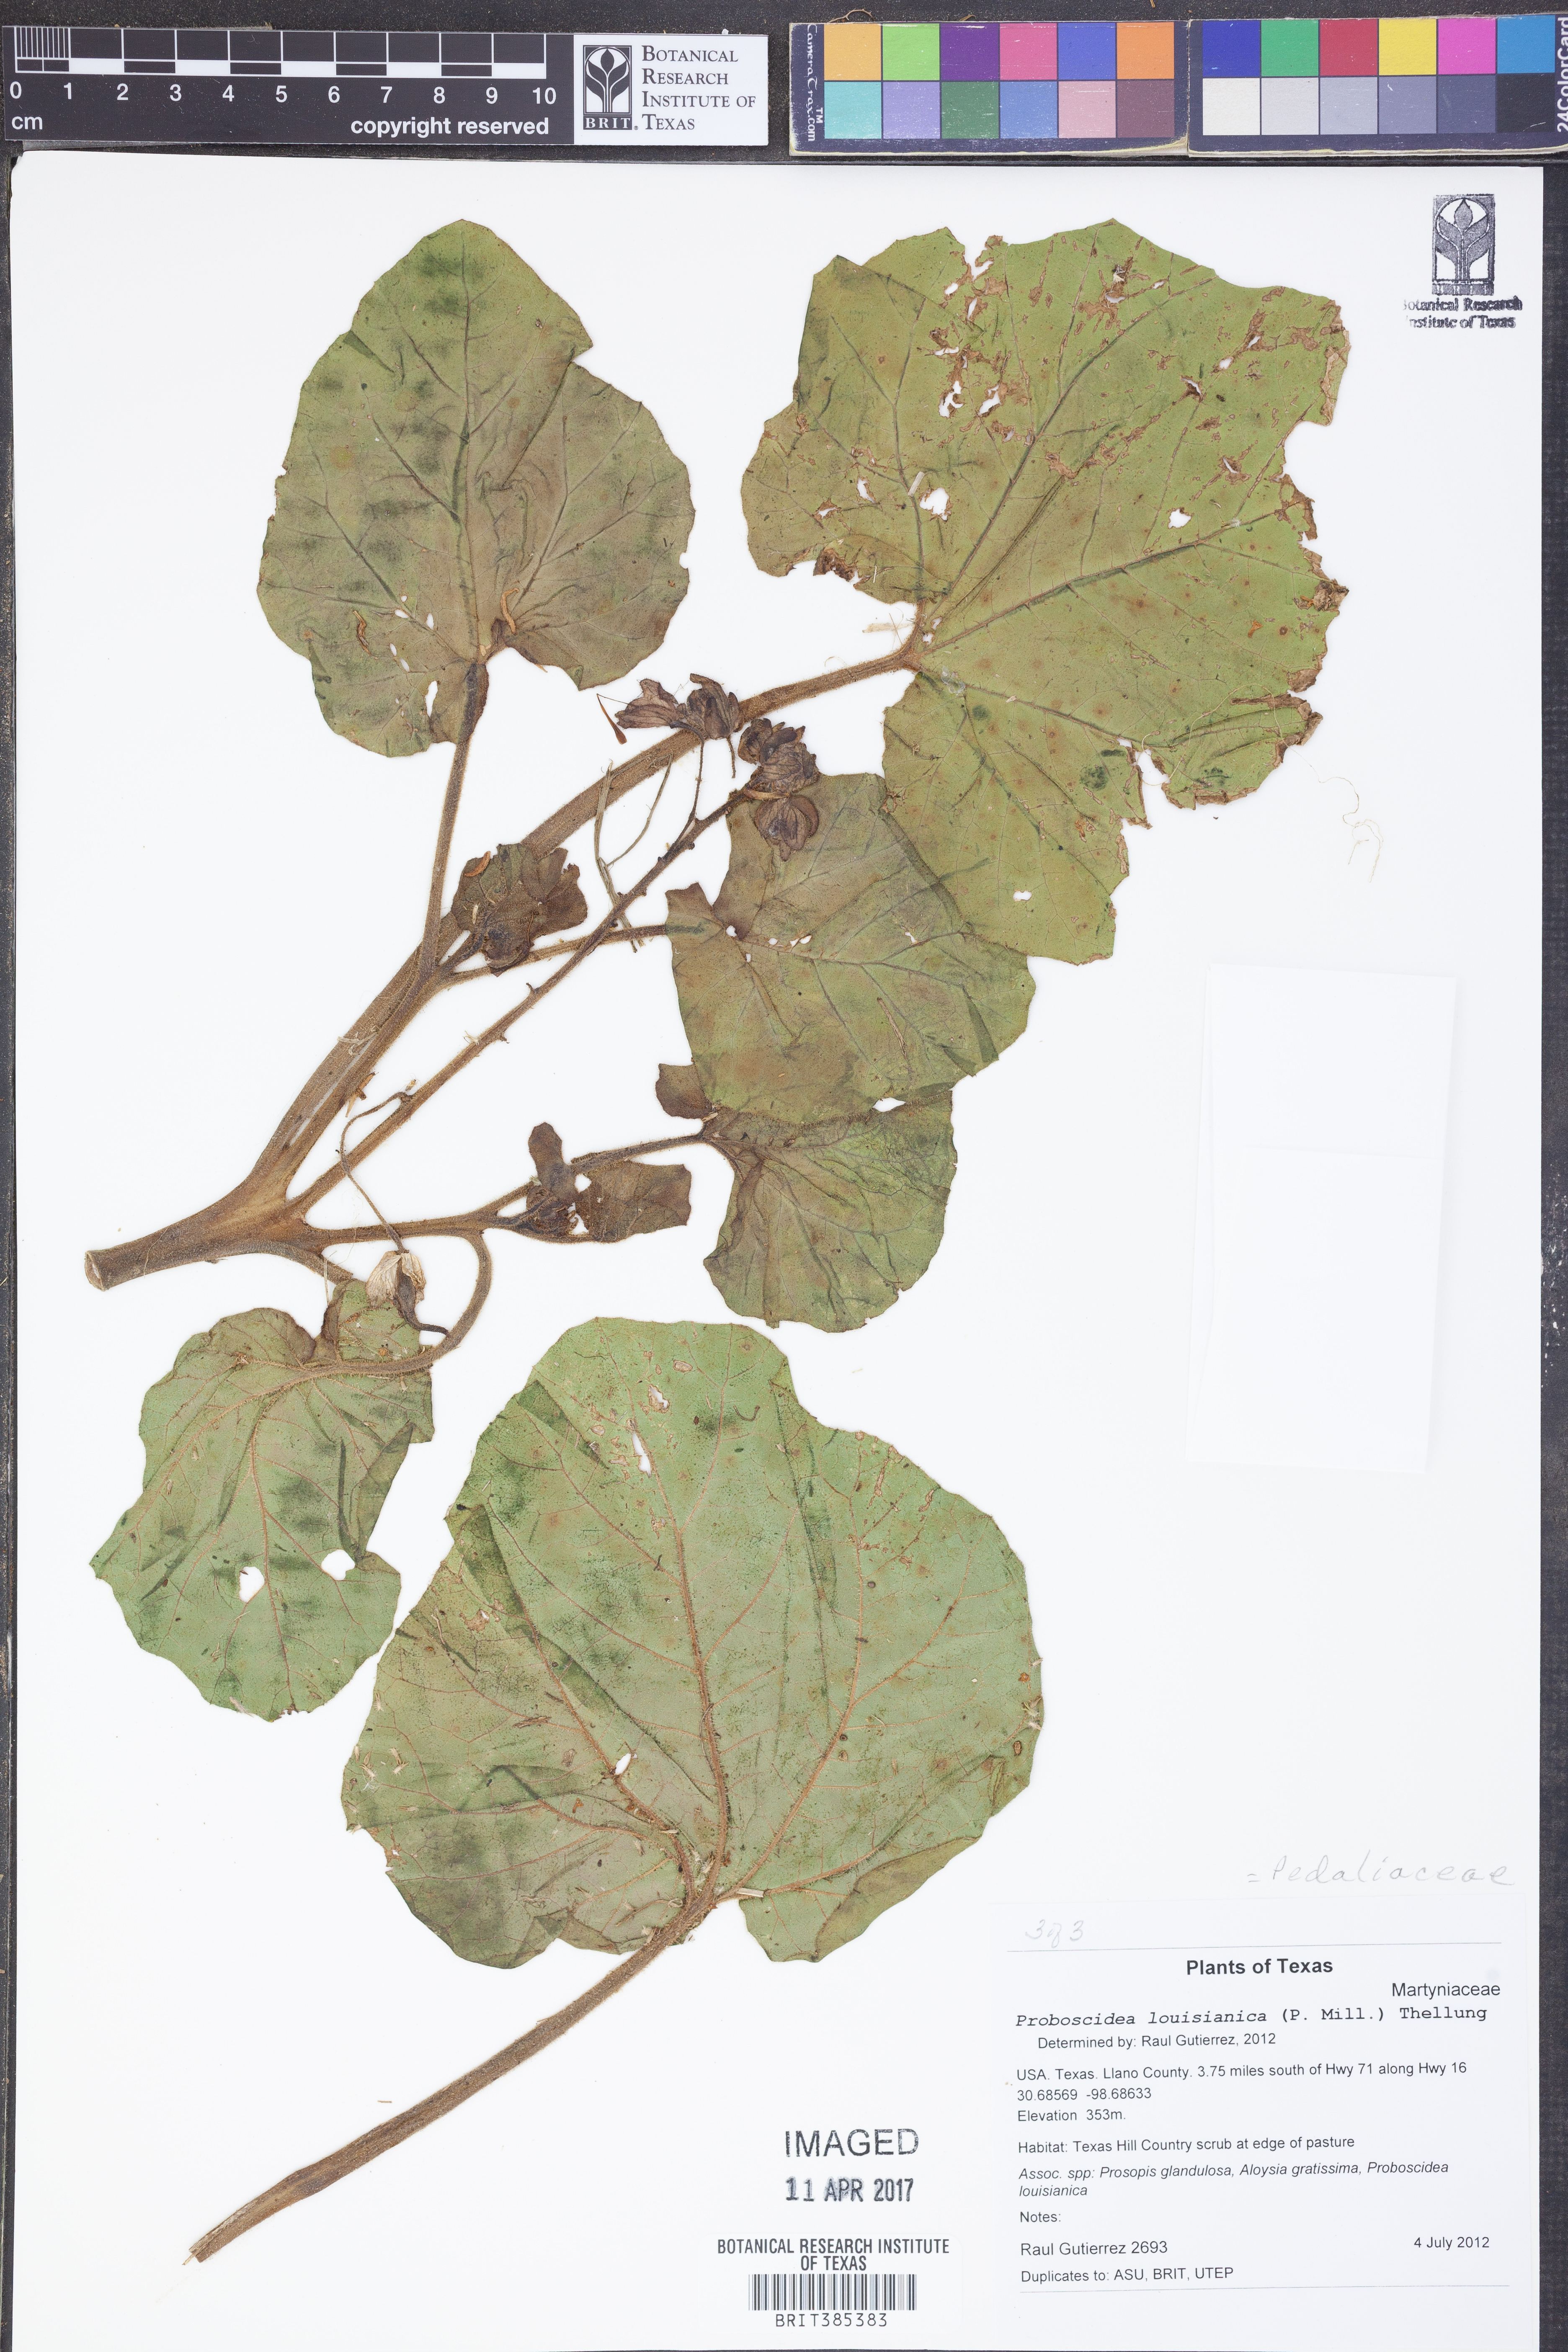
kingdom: Plantae
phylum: Tracheophyta
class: Magnoliopsida
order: Lamiales
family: Martyniaceae
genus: Proboscidea
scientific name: Proboscidea louisianica
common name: Elephant tusks
